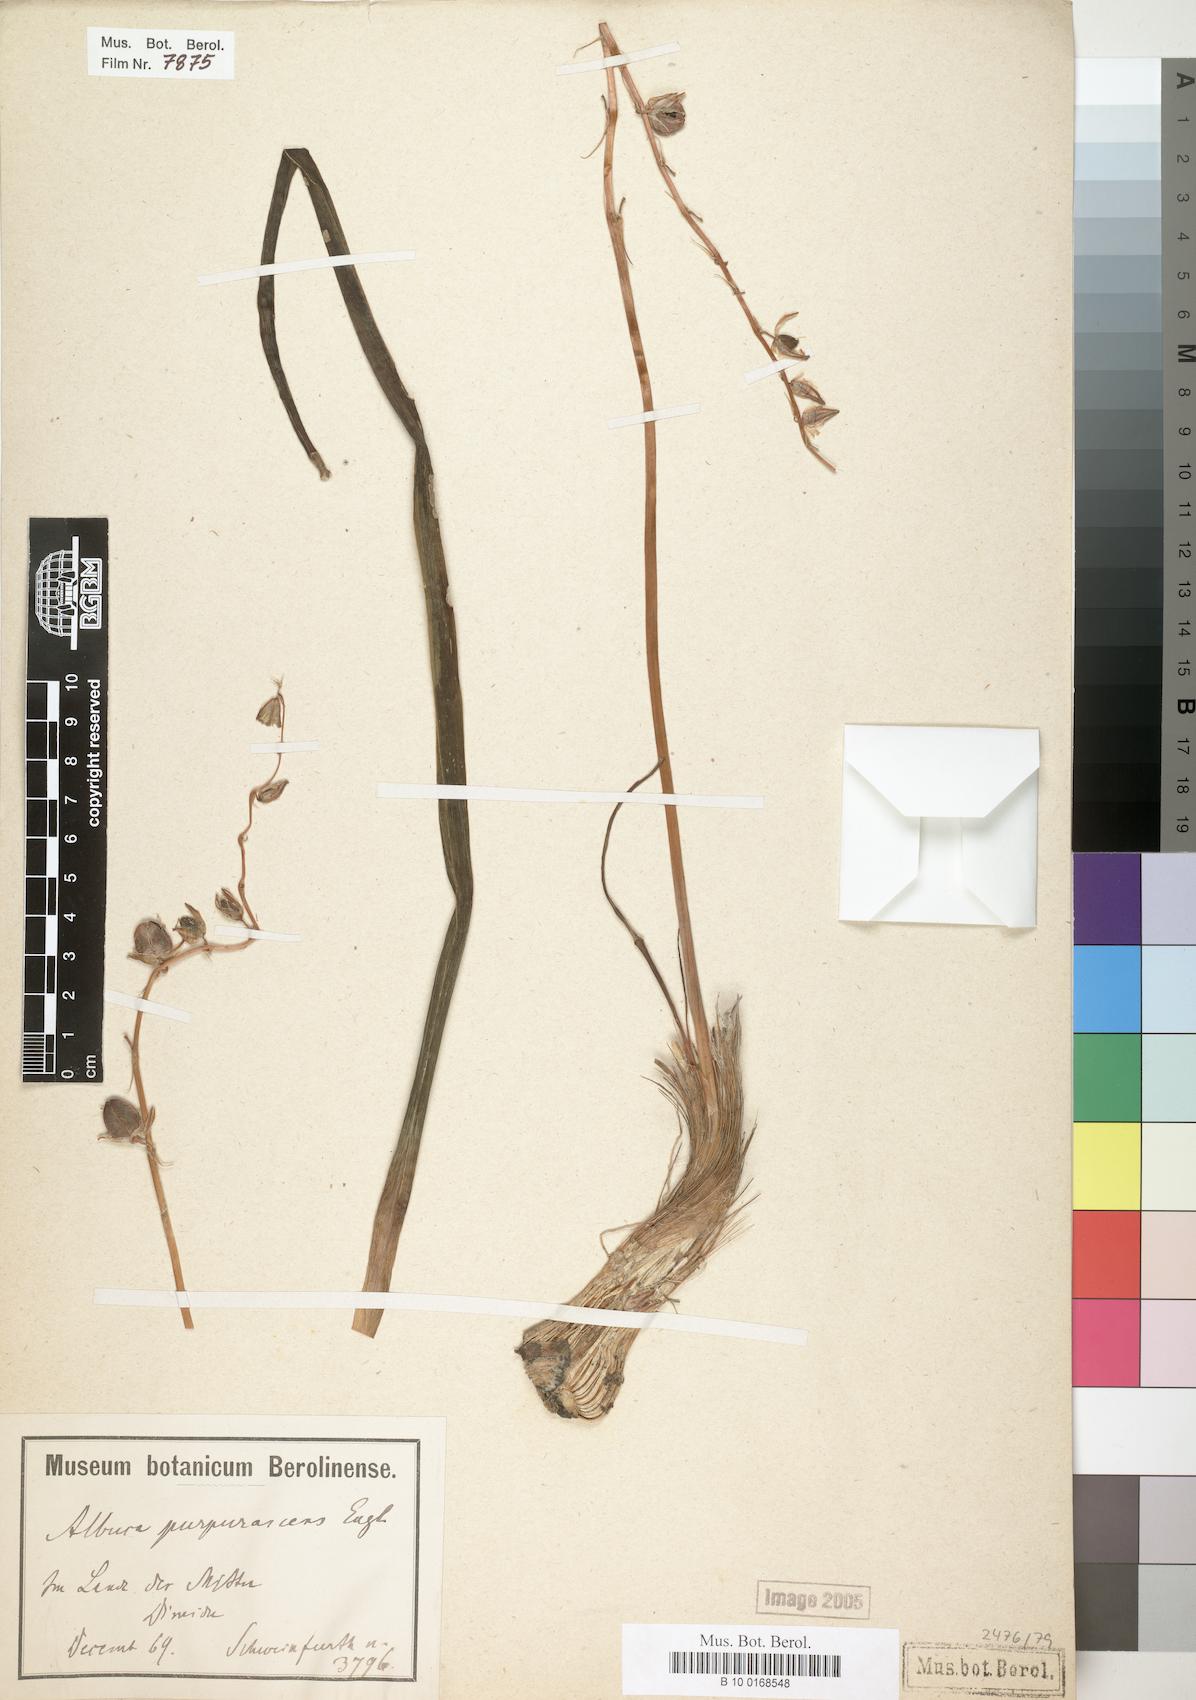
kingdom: Plantae
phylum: Tracheophyta
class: Liliopsida
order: Asparagales
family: Asparagaceae
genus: Albuca
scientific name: Albuca abyssinica
